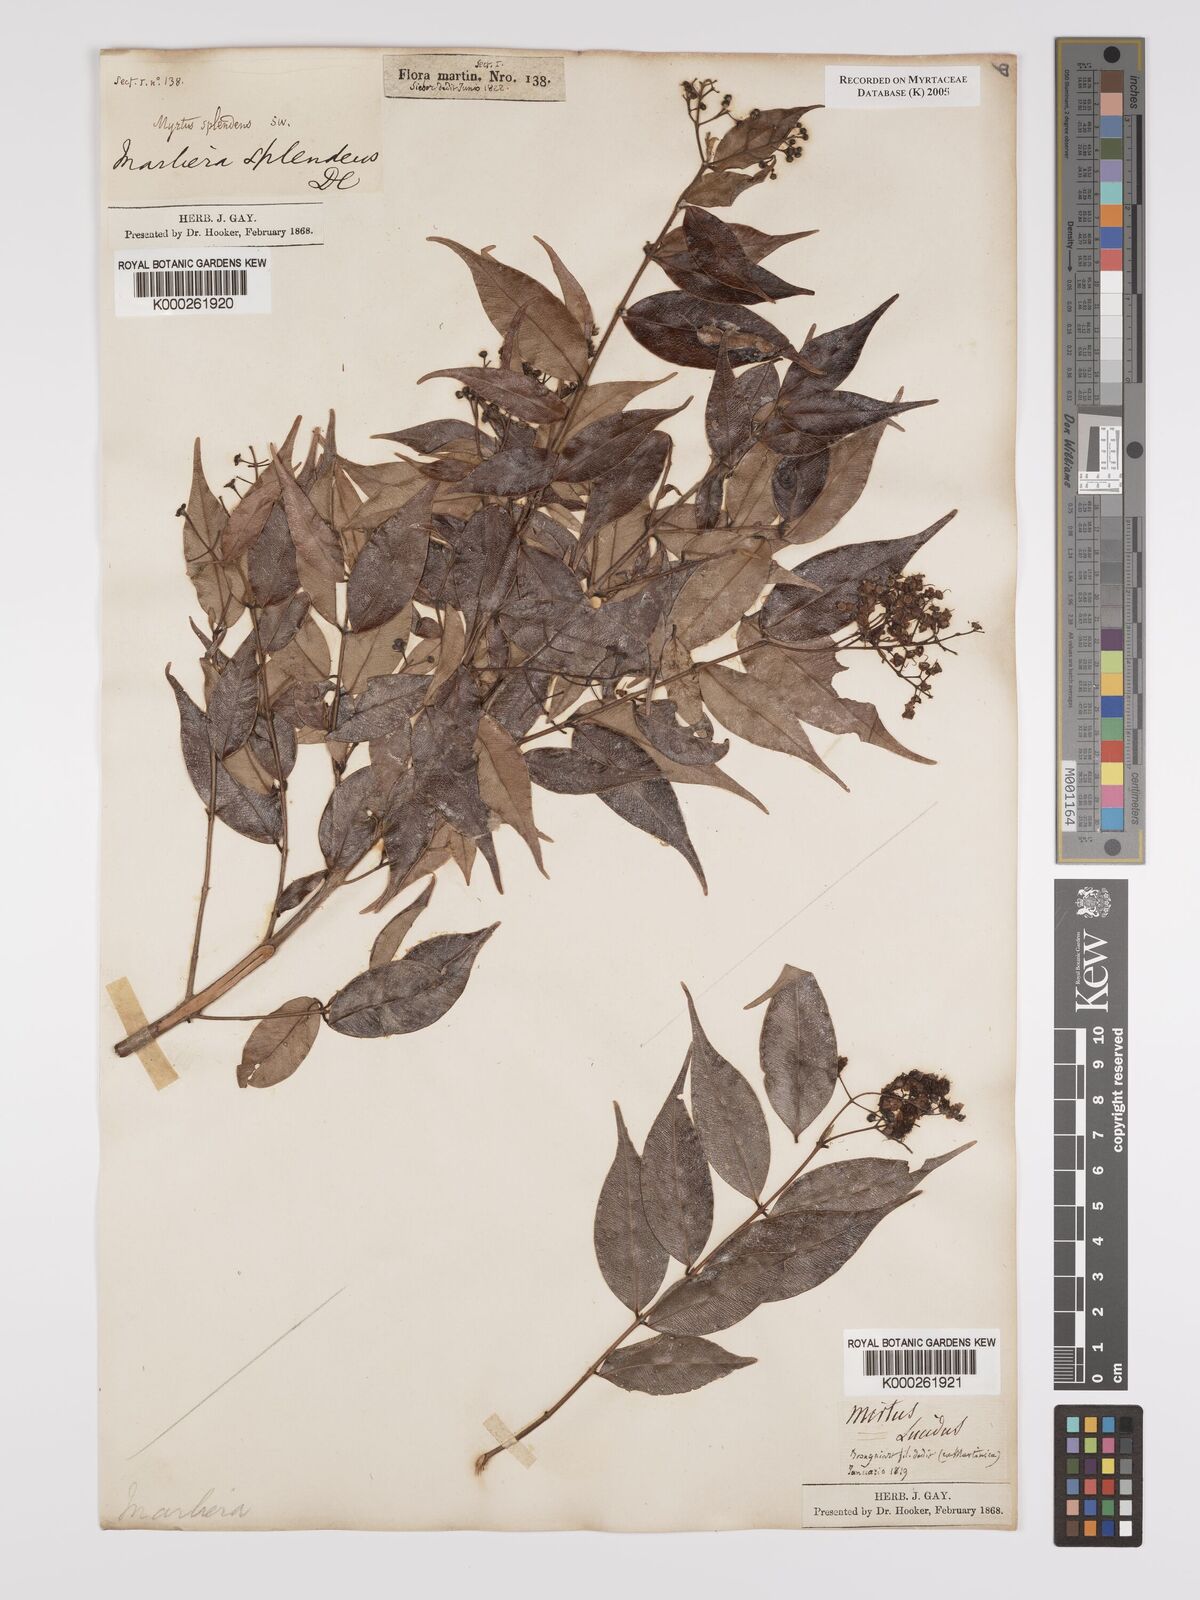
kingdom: Plantae
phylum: Tracheophyta
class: Magnoliopsida
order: Myrtales
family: Myrtaceae
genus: Myrcia
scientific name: Myrcia splendens
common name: Surinam cherry
